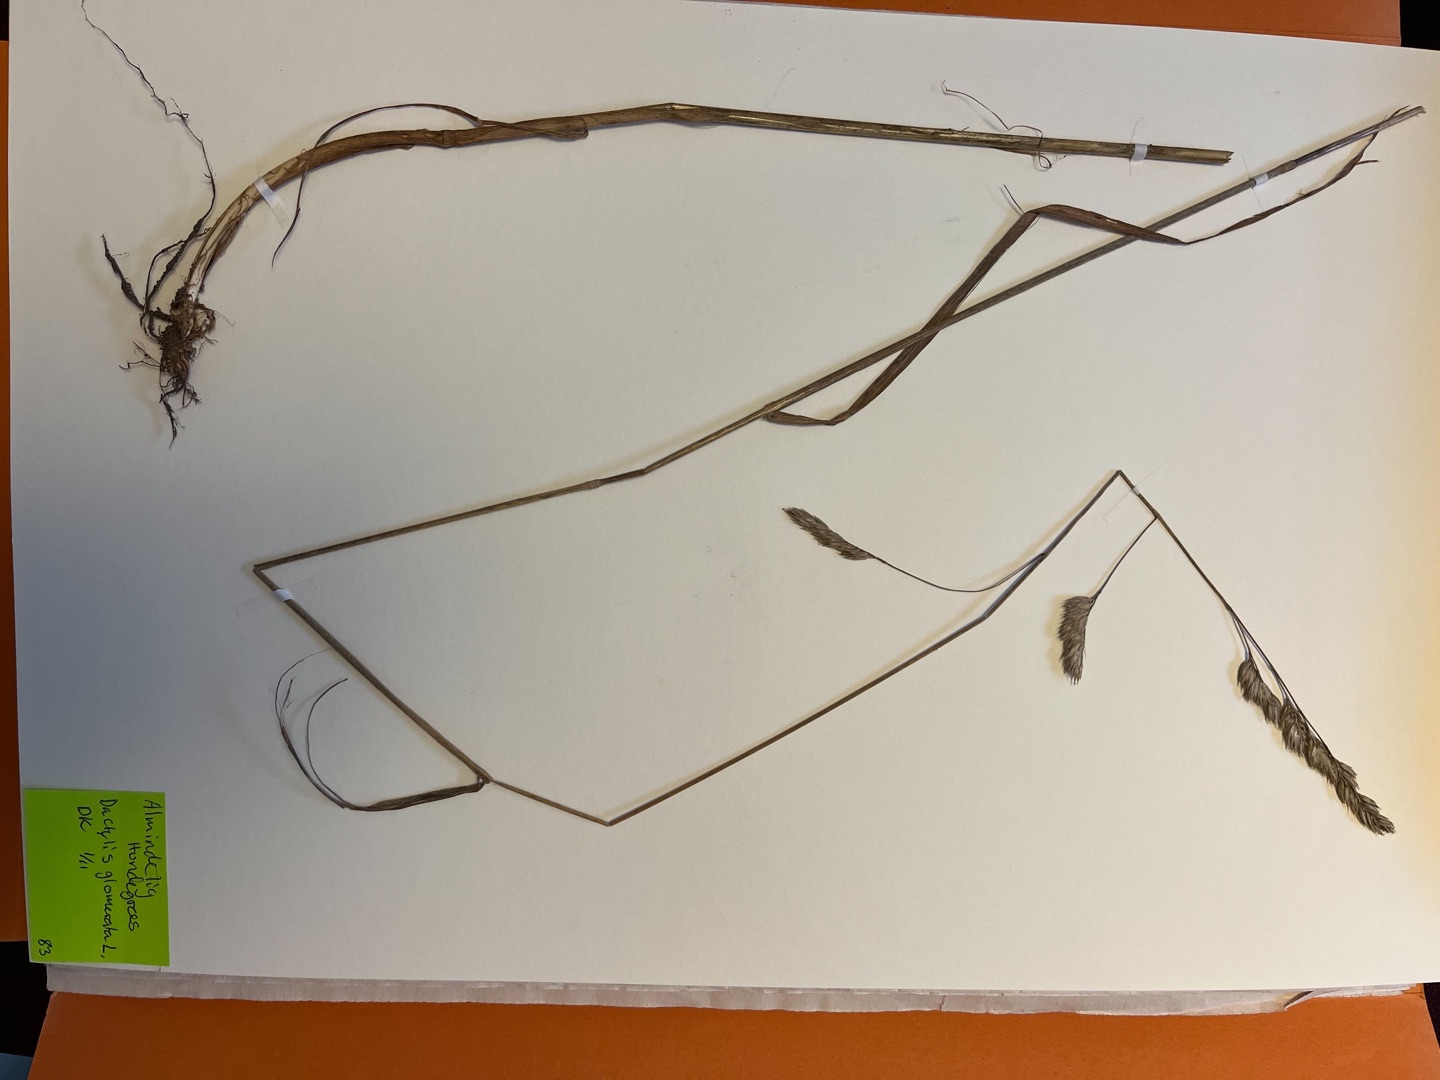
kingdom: Plantae
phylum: Tracheophyta
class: Liliopsida
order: Poales
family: Poaceae
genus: Dactylis
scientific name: Dactylis glomerata
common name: Almindelig hundegræs
